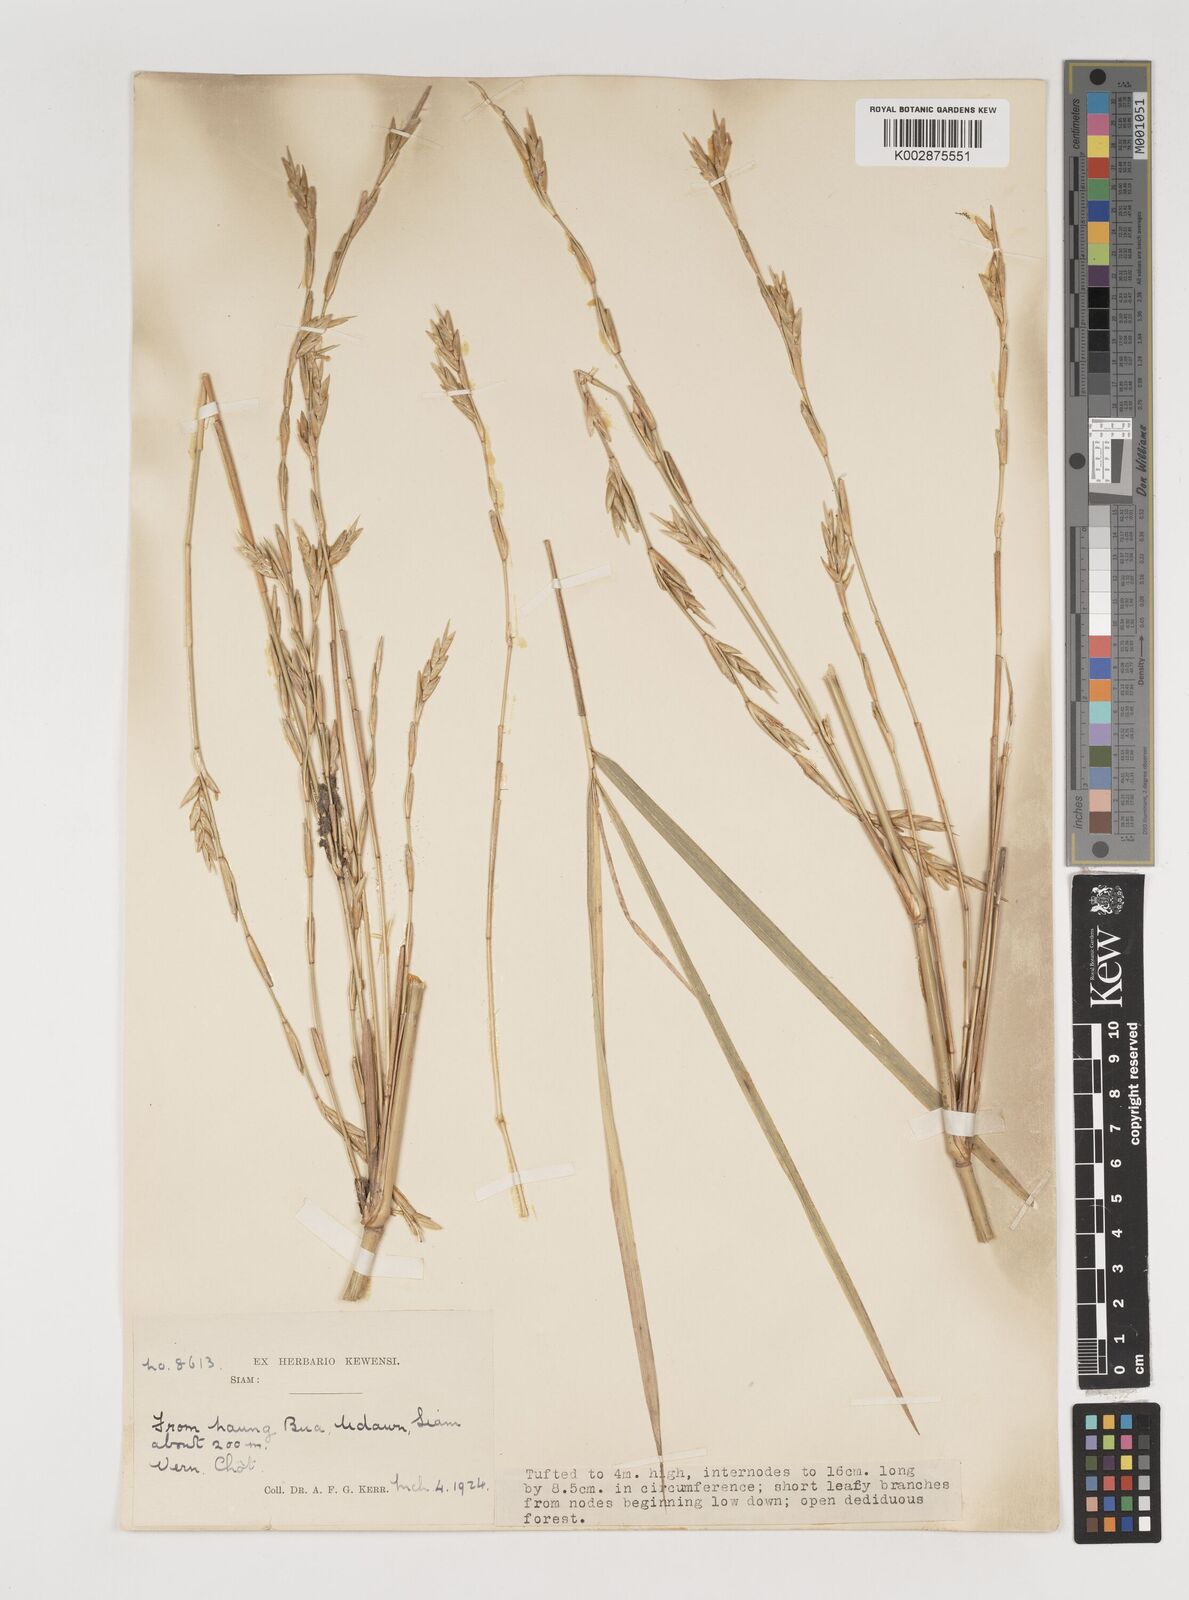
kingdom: Plantae
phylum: Tracheophyta
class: Liliopsida
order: Poales
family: Poaceae
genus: Vietnamosasa
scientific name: Vietnamosasa pusilla
